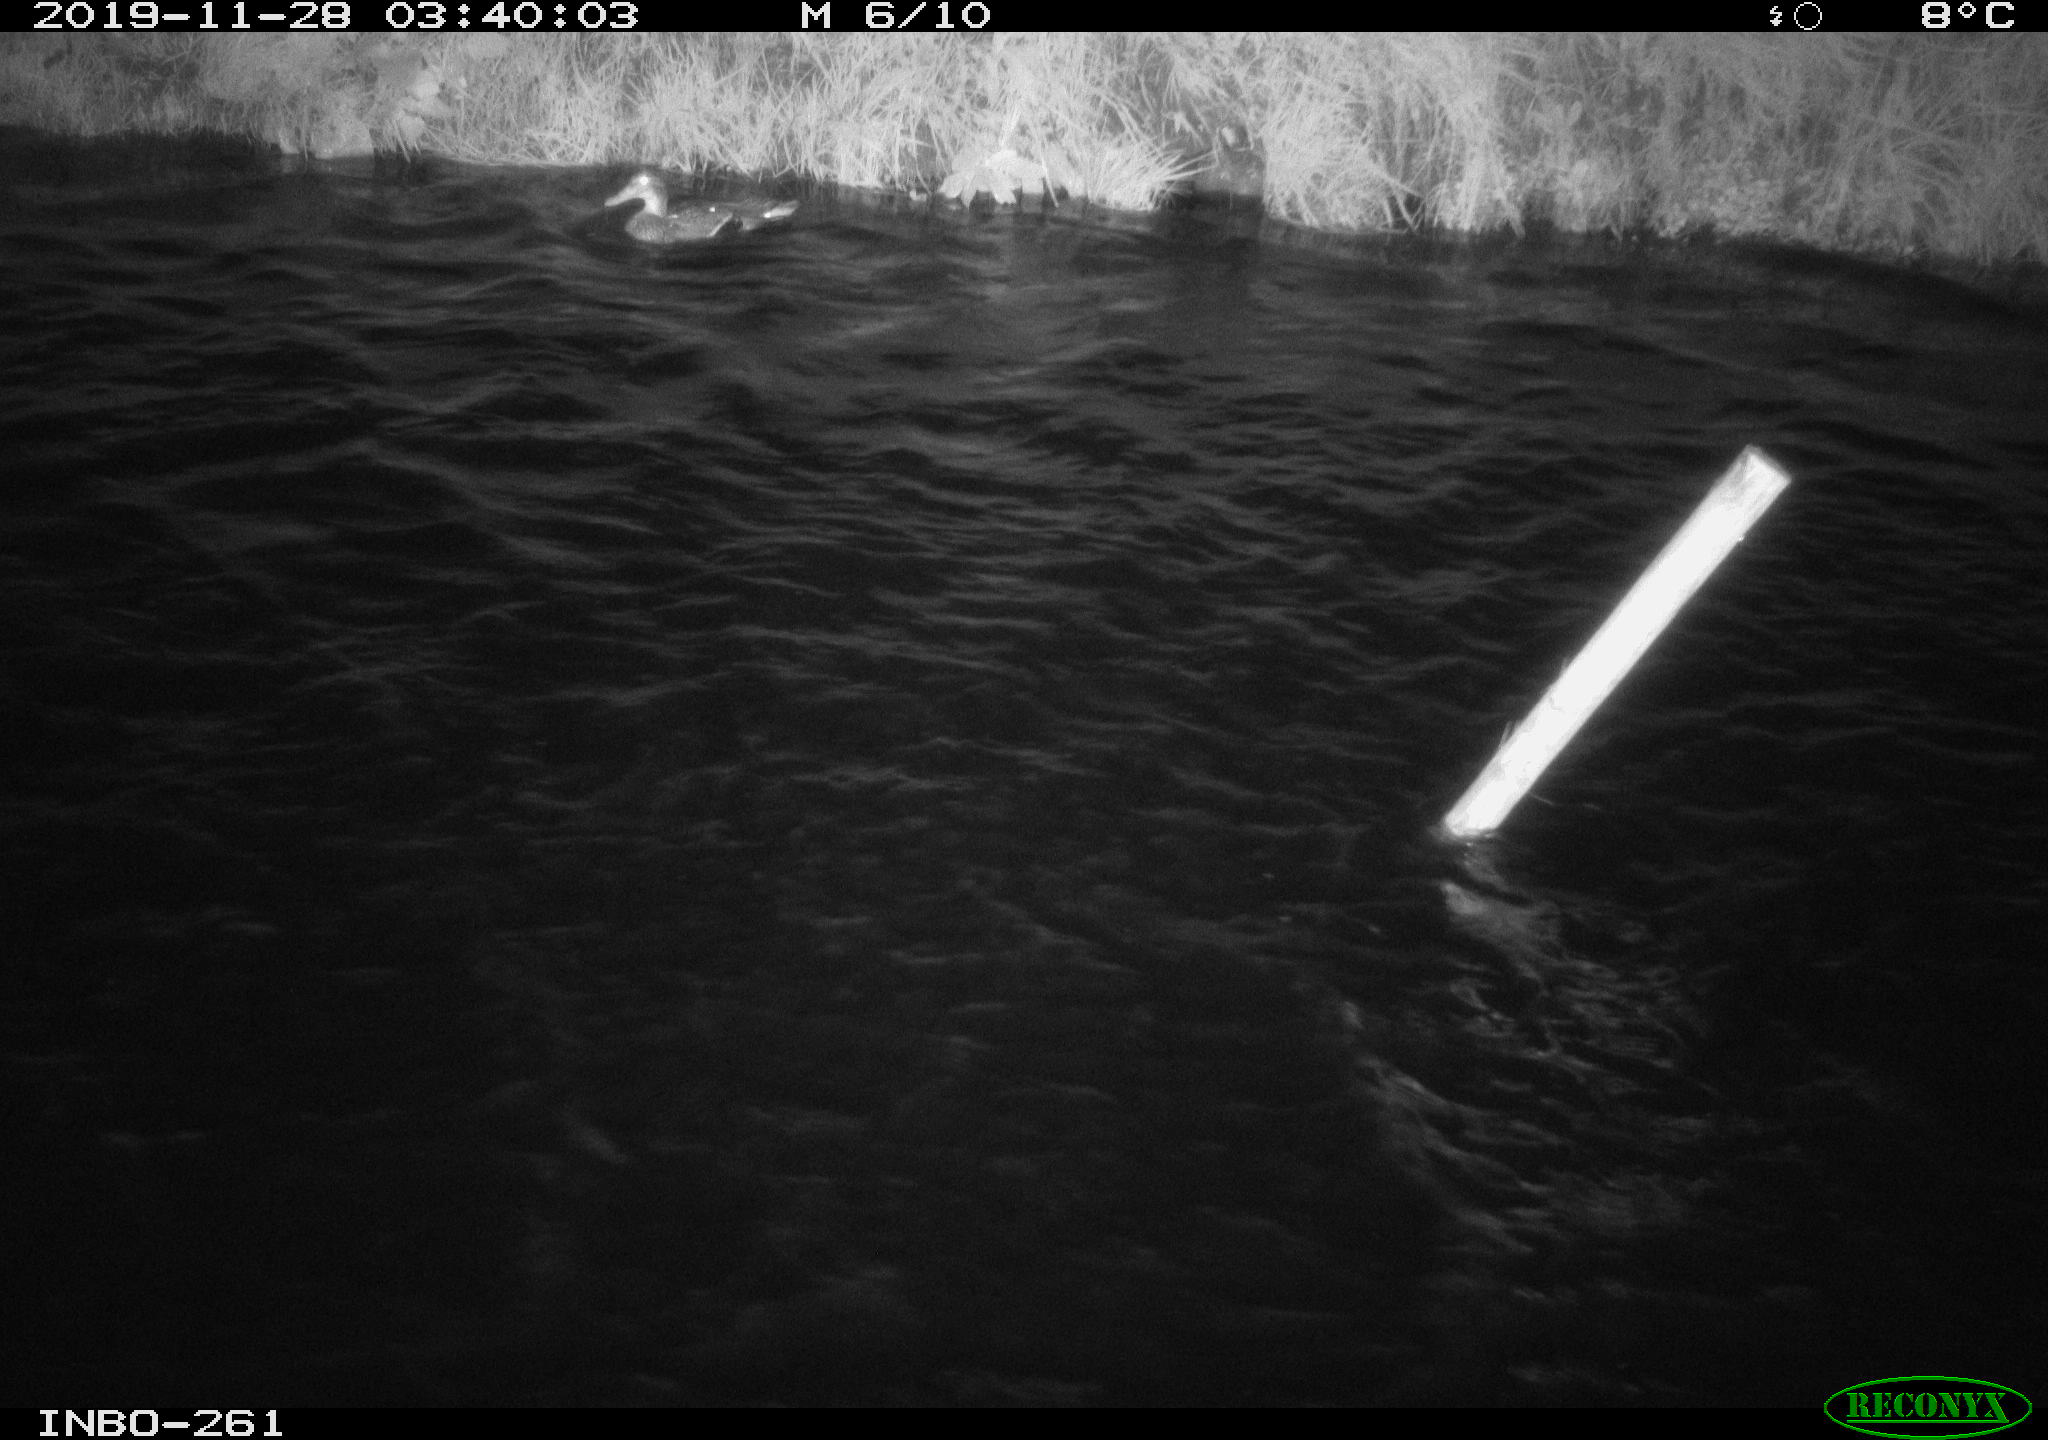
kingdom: Animalia
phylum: Chordata
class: Aves
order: Anseriformes
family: Anatidae
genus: Anas
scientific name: Anas platyrhynchos
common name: Mallard
